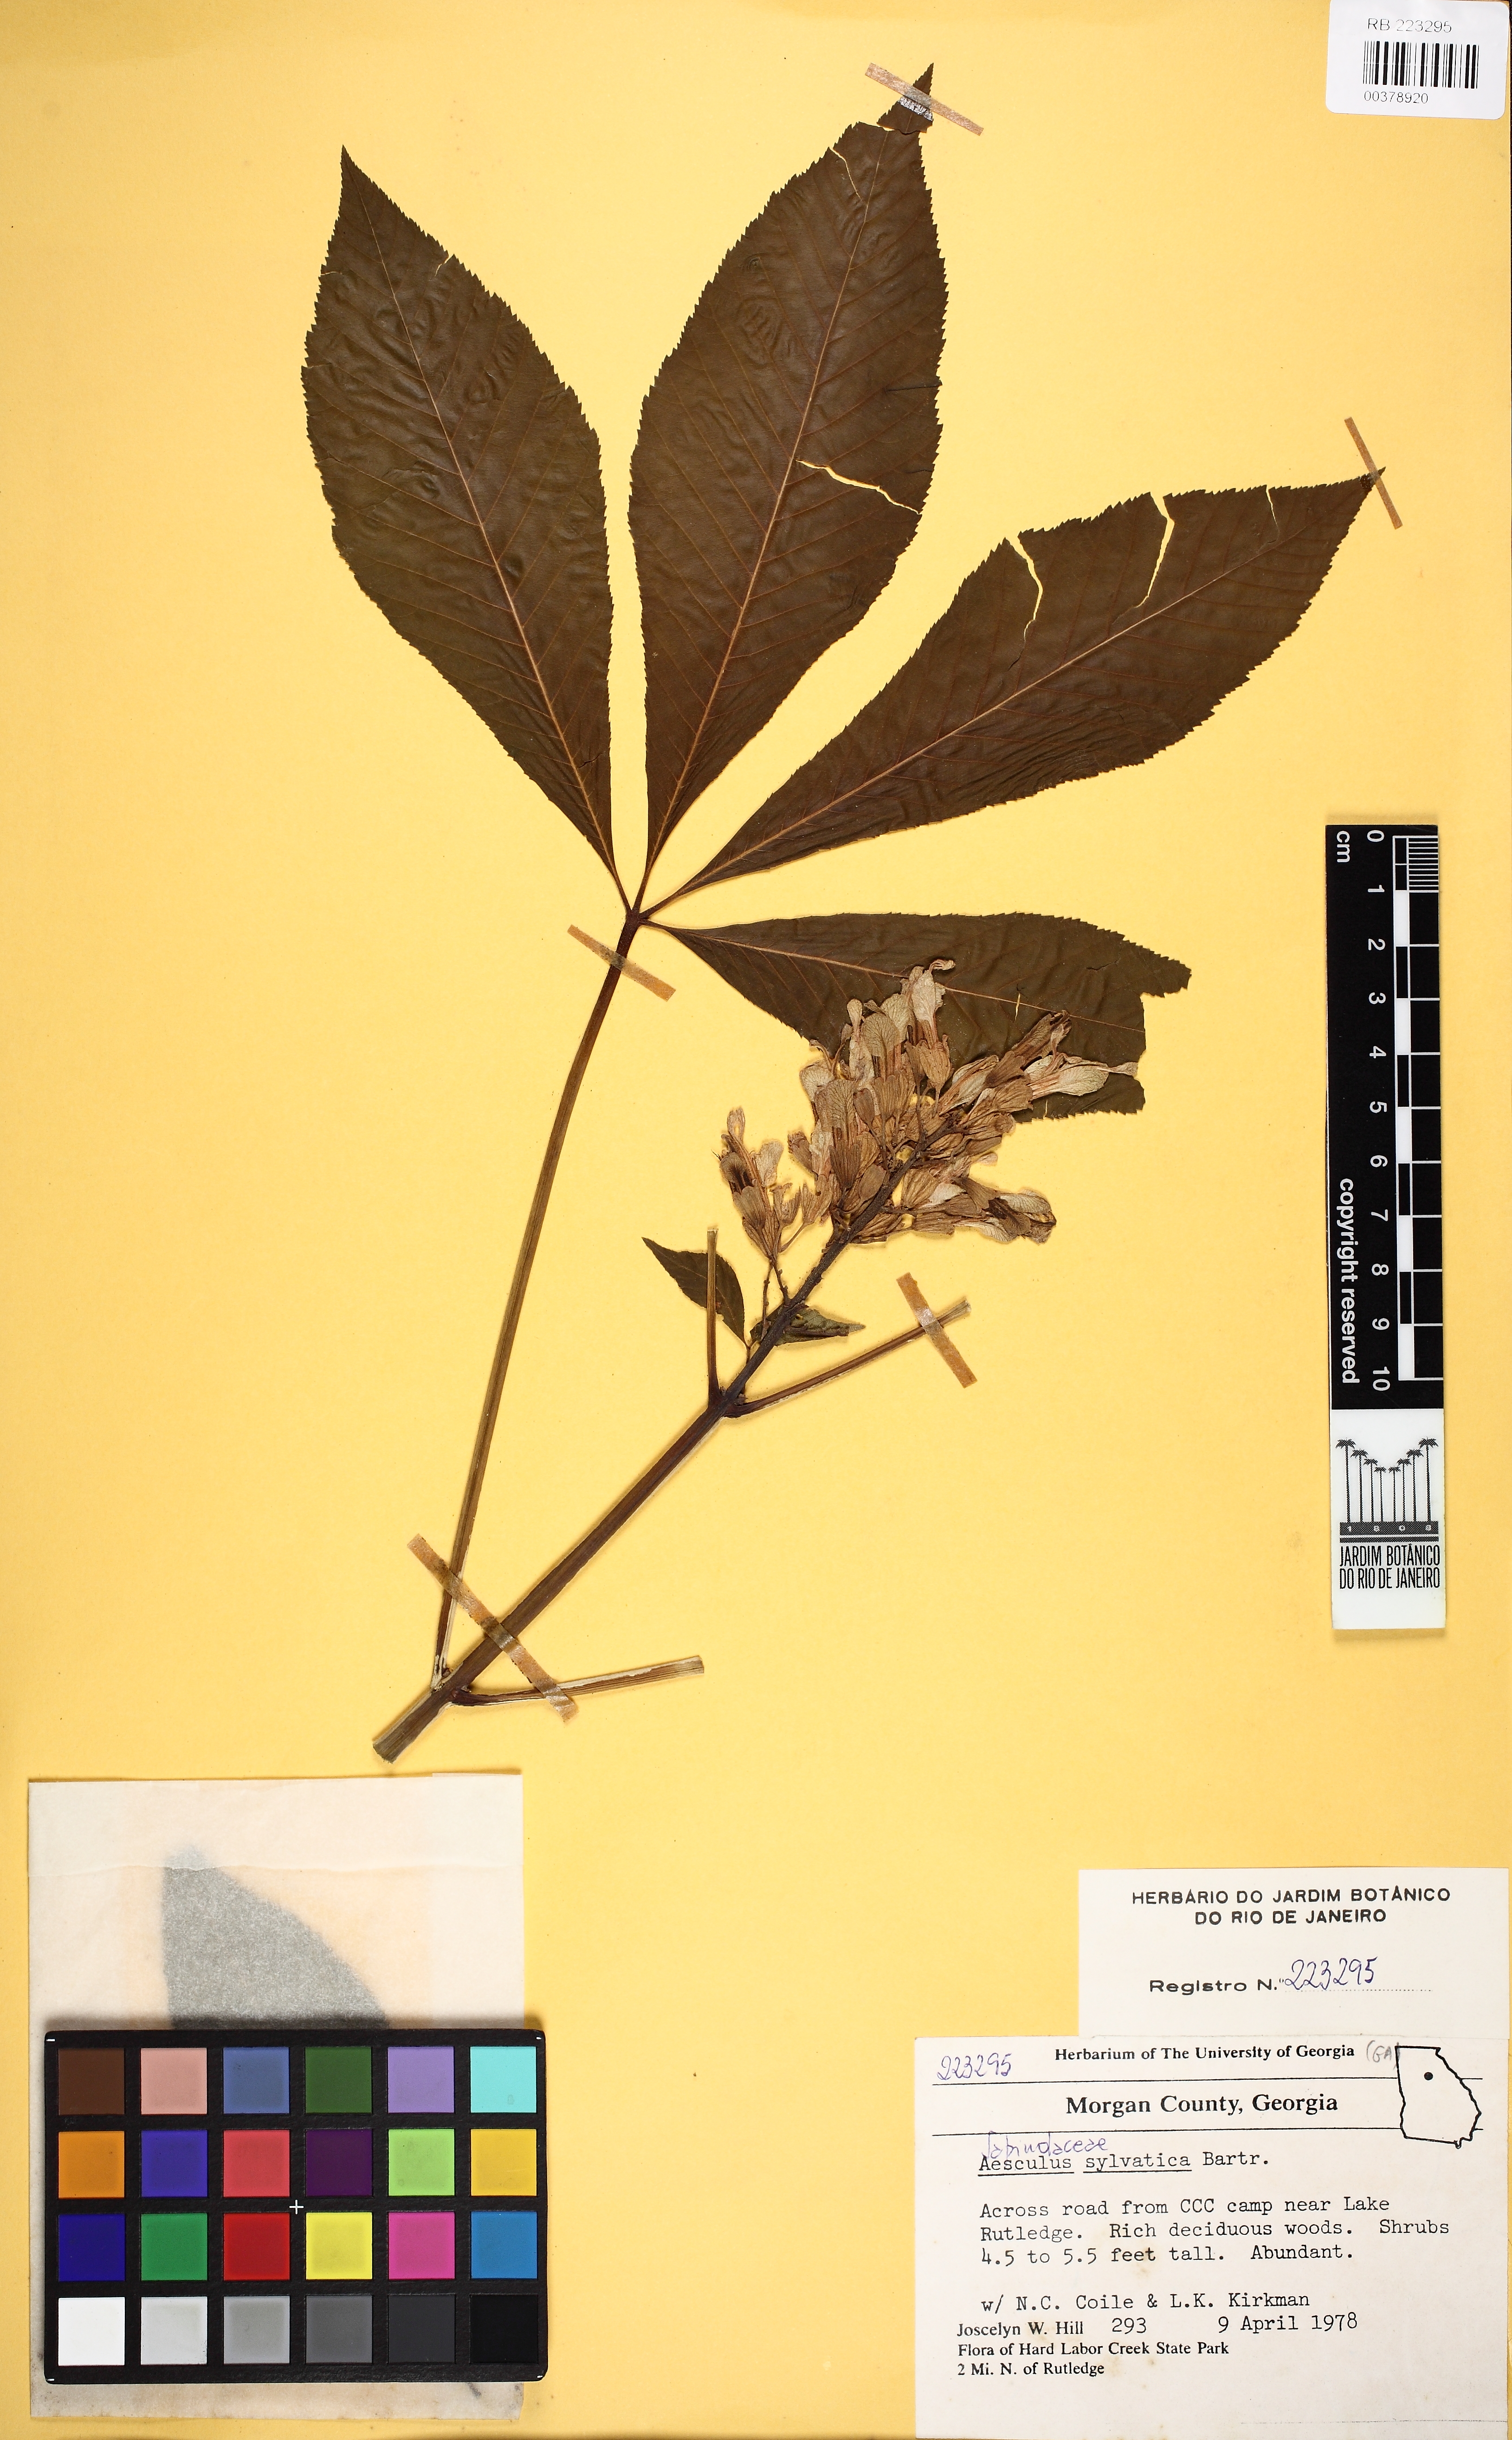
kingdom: Plantae
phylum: Tracheophyta
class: Magnoliopsida
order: Sapindales
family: Sapindaceae
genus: Aesculus
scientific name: Aesculus sylvatica
